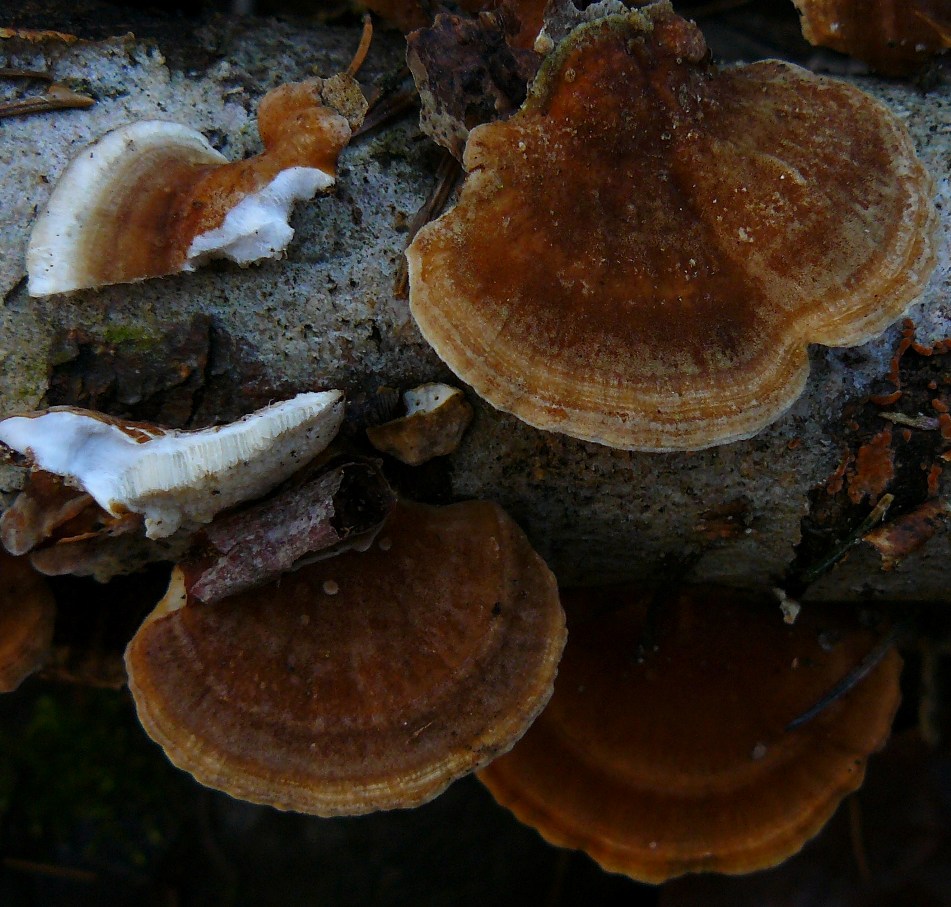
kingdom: Fungi
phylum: Basidiomycota
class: Agaricomycetes
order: Polyporales
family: Polyporaceae
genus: Trametes
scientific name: Trametes ochracea
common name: bæltet læderporesvamp
